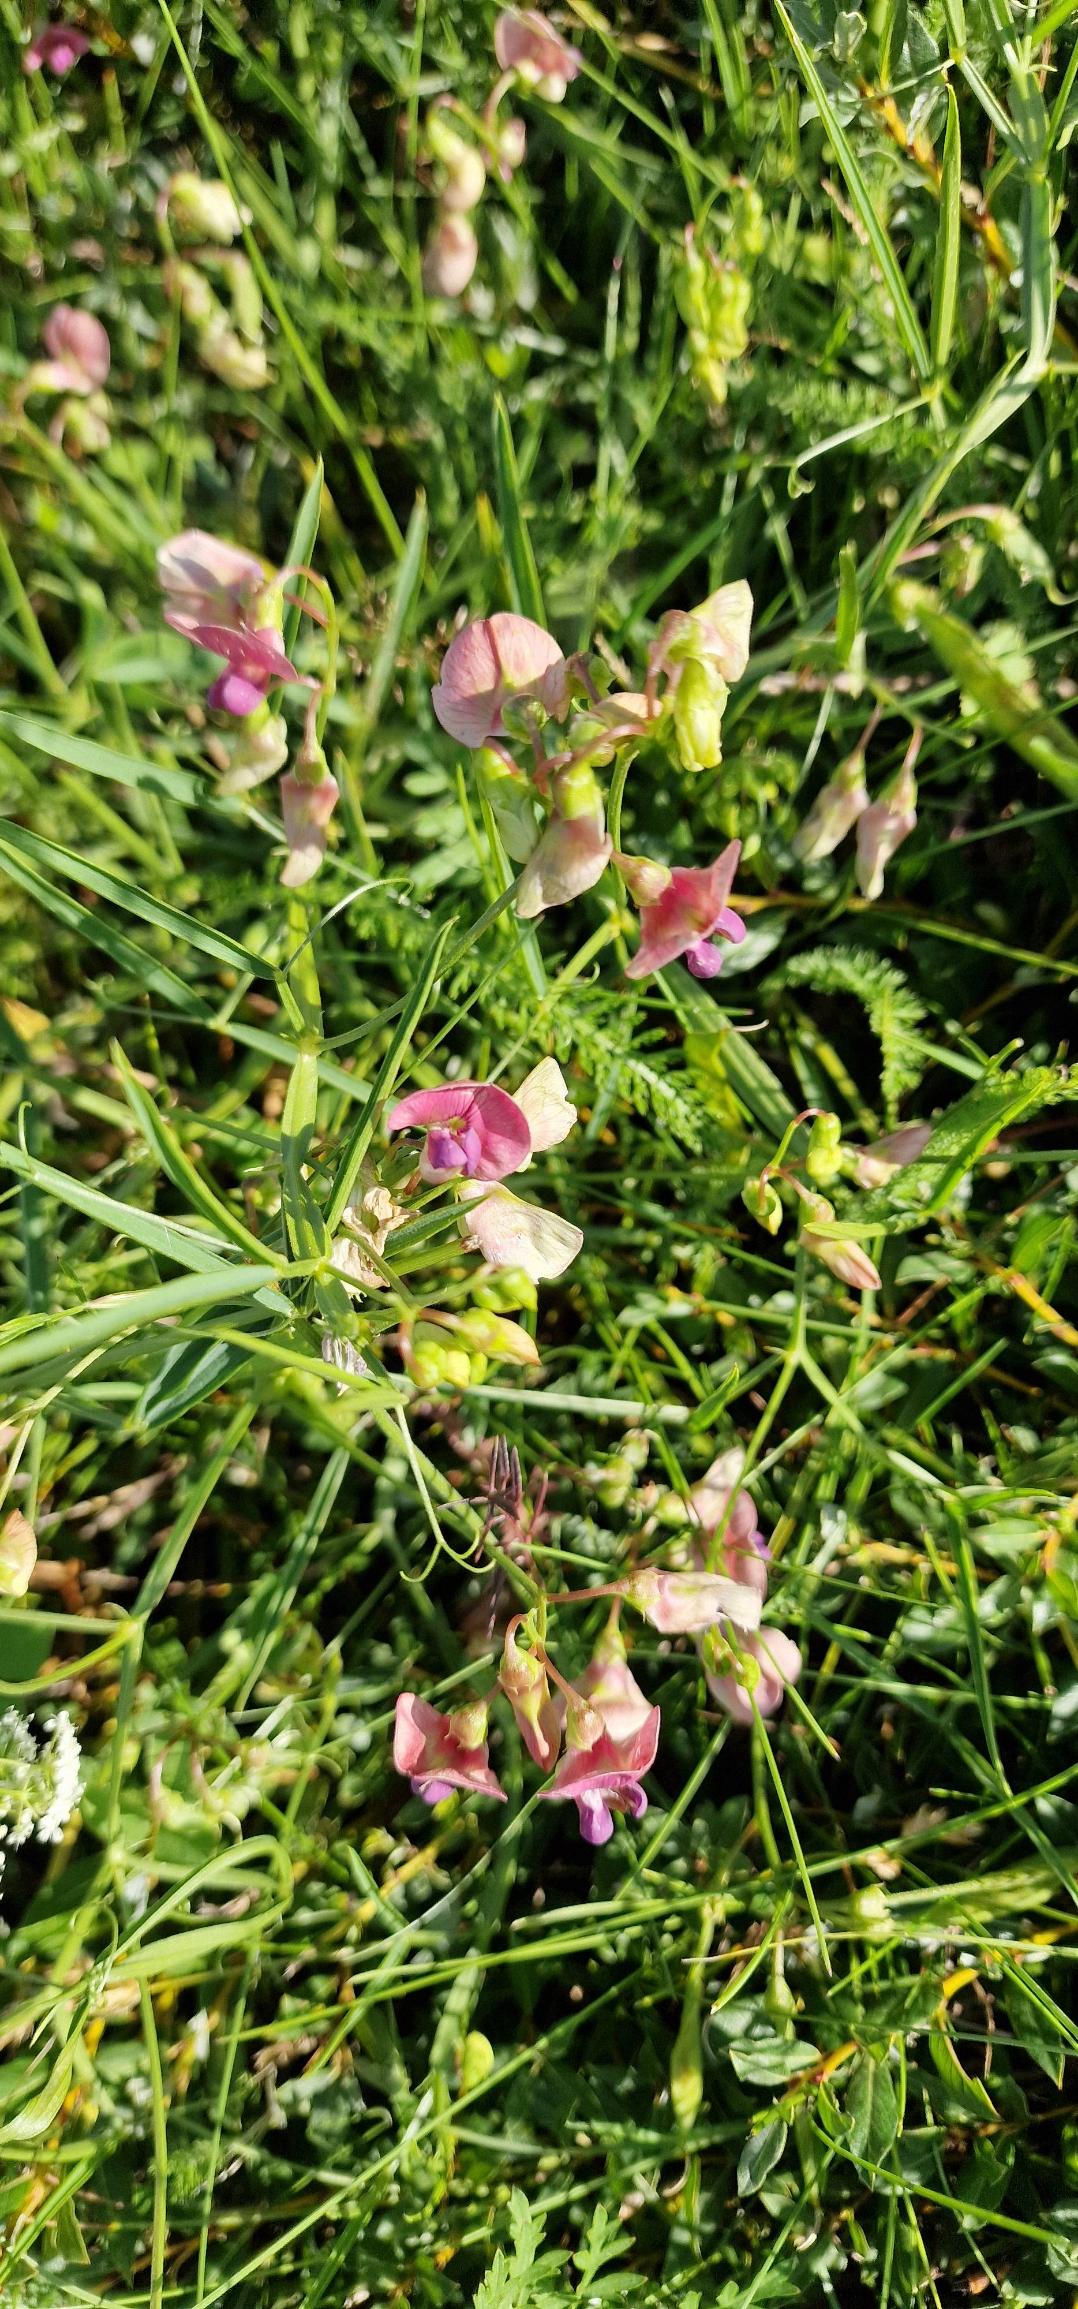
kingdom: Plantae
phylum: Tracheophyta
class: Magnoliopsida
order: Fabales
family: Fabaceae
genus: Lathyrus
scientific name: Lathyrus sylvestris
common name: Skov-fladbælg
